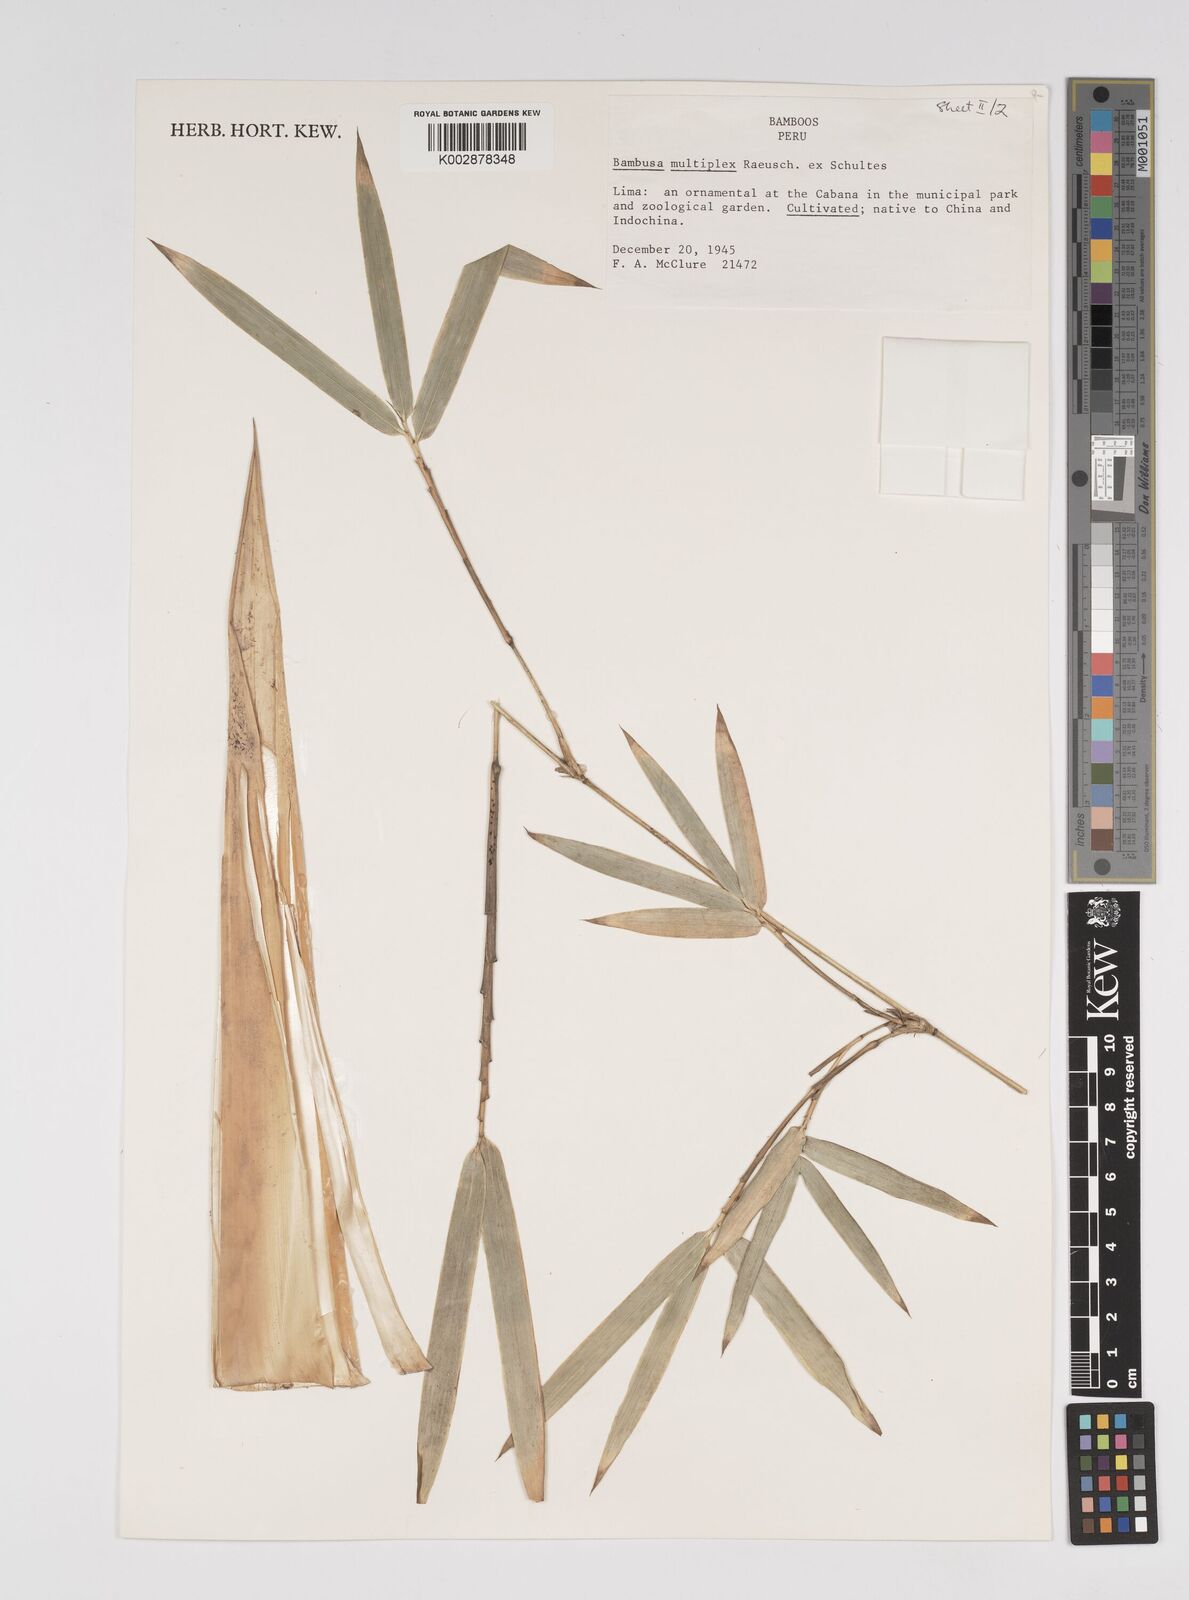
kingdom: Plantae
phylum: Tracheophyta
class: Liliopsida
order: Poales
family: Poaceae
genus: Bambusa
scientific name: Bambusa multiplex
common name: Hedge bamboo
